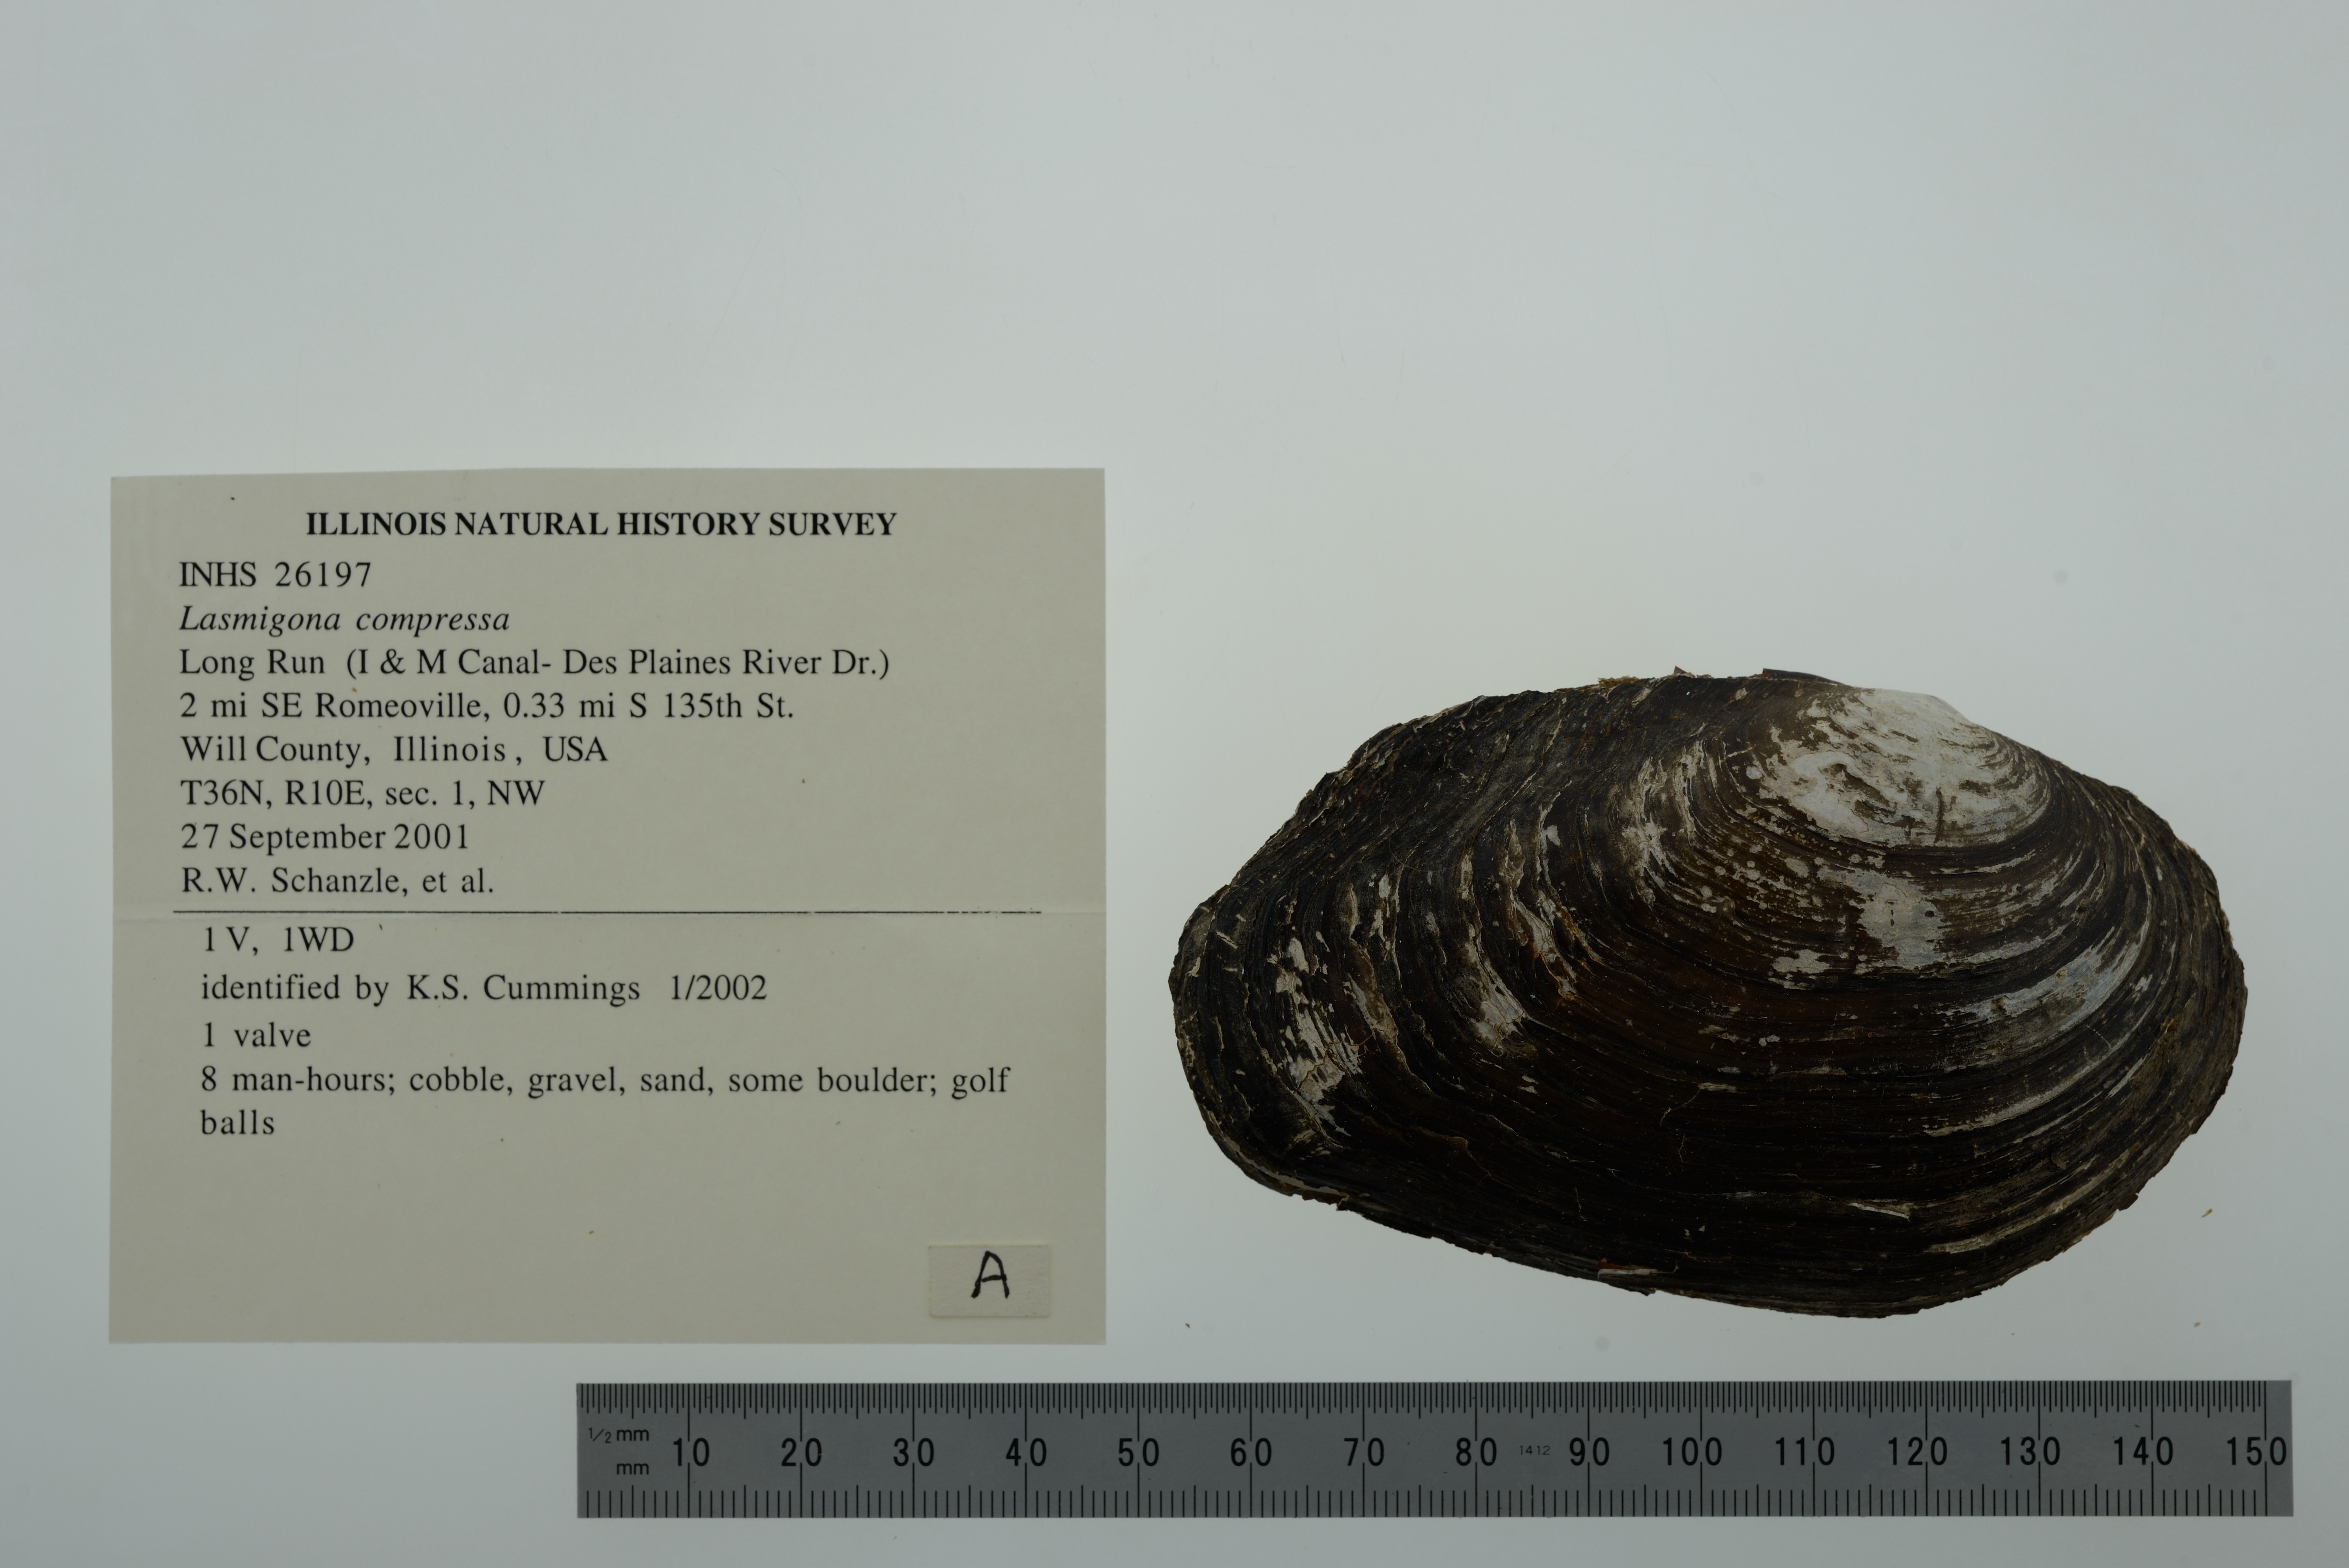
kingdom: Animalia
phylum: Mollusca
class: Bivalvia
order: Unionida
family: Unionidae
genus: Lasmigona
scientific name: Lasmigona compressa
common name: Creek heelsplitter
